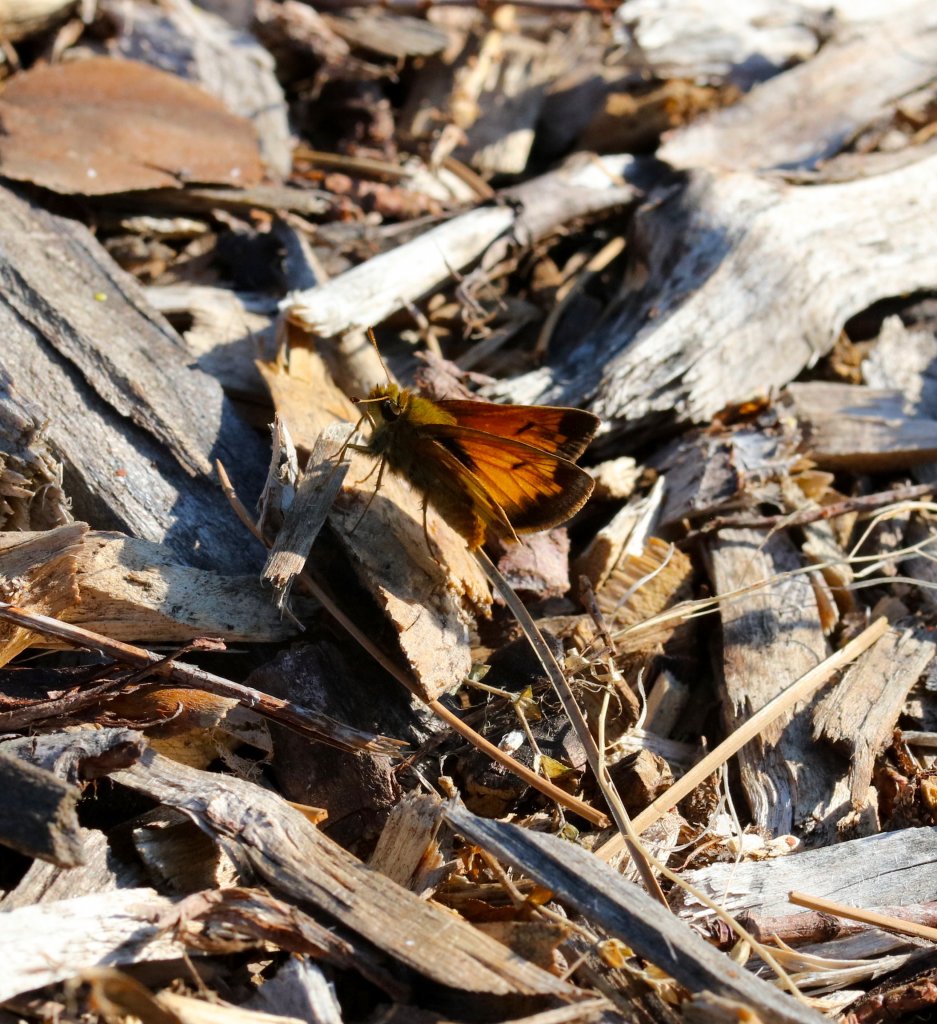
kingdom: Animalia
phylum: Arthropoda
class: Insecta
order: Lepidoptera
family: Hesperiidae
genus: Lon
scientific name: Lon hobomok
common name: Hobomok Skipper
